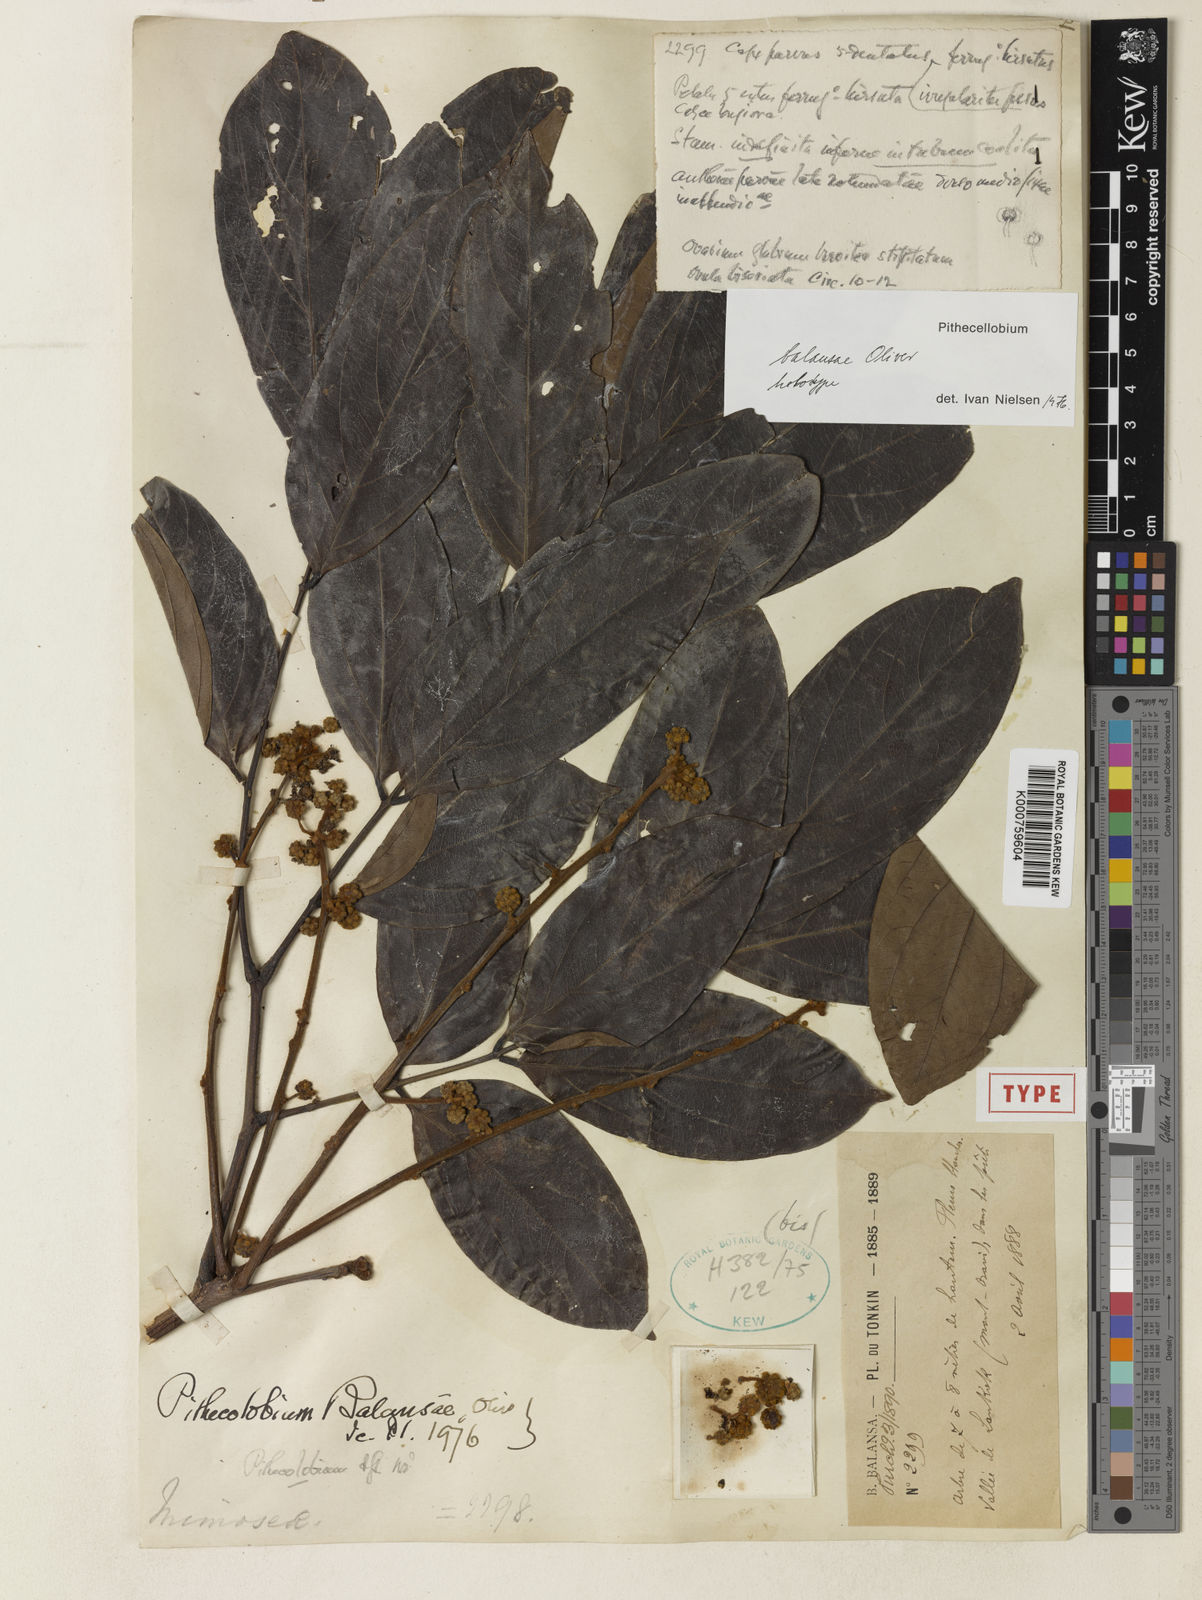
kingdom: Plantae
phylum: Tracheophyta
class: Magnoliopsida
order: Fabales
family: Fabaceae
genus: Archidendron
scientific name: Archidendron balansae
